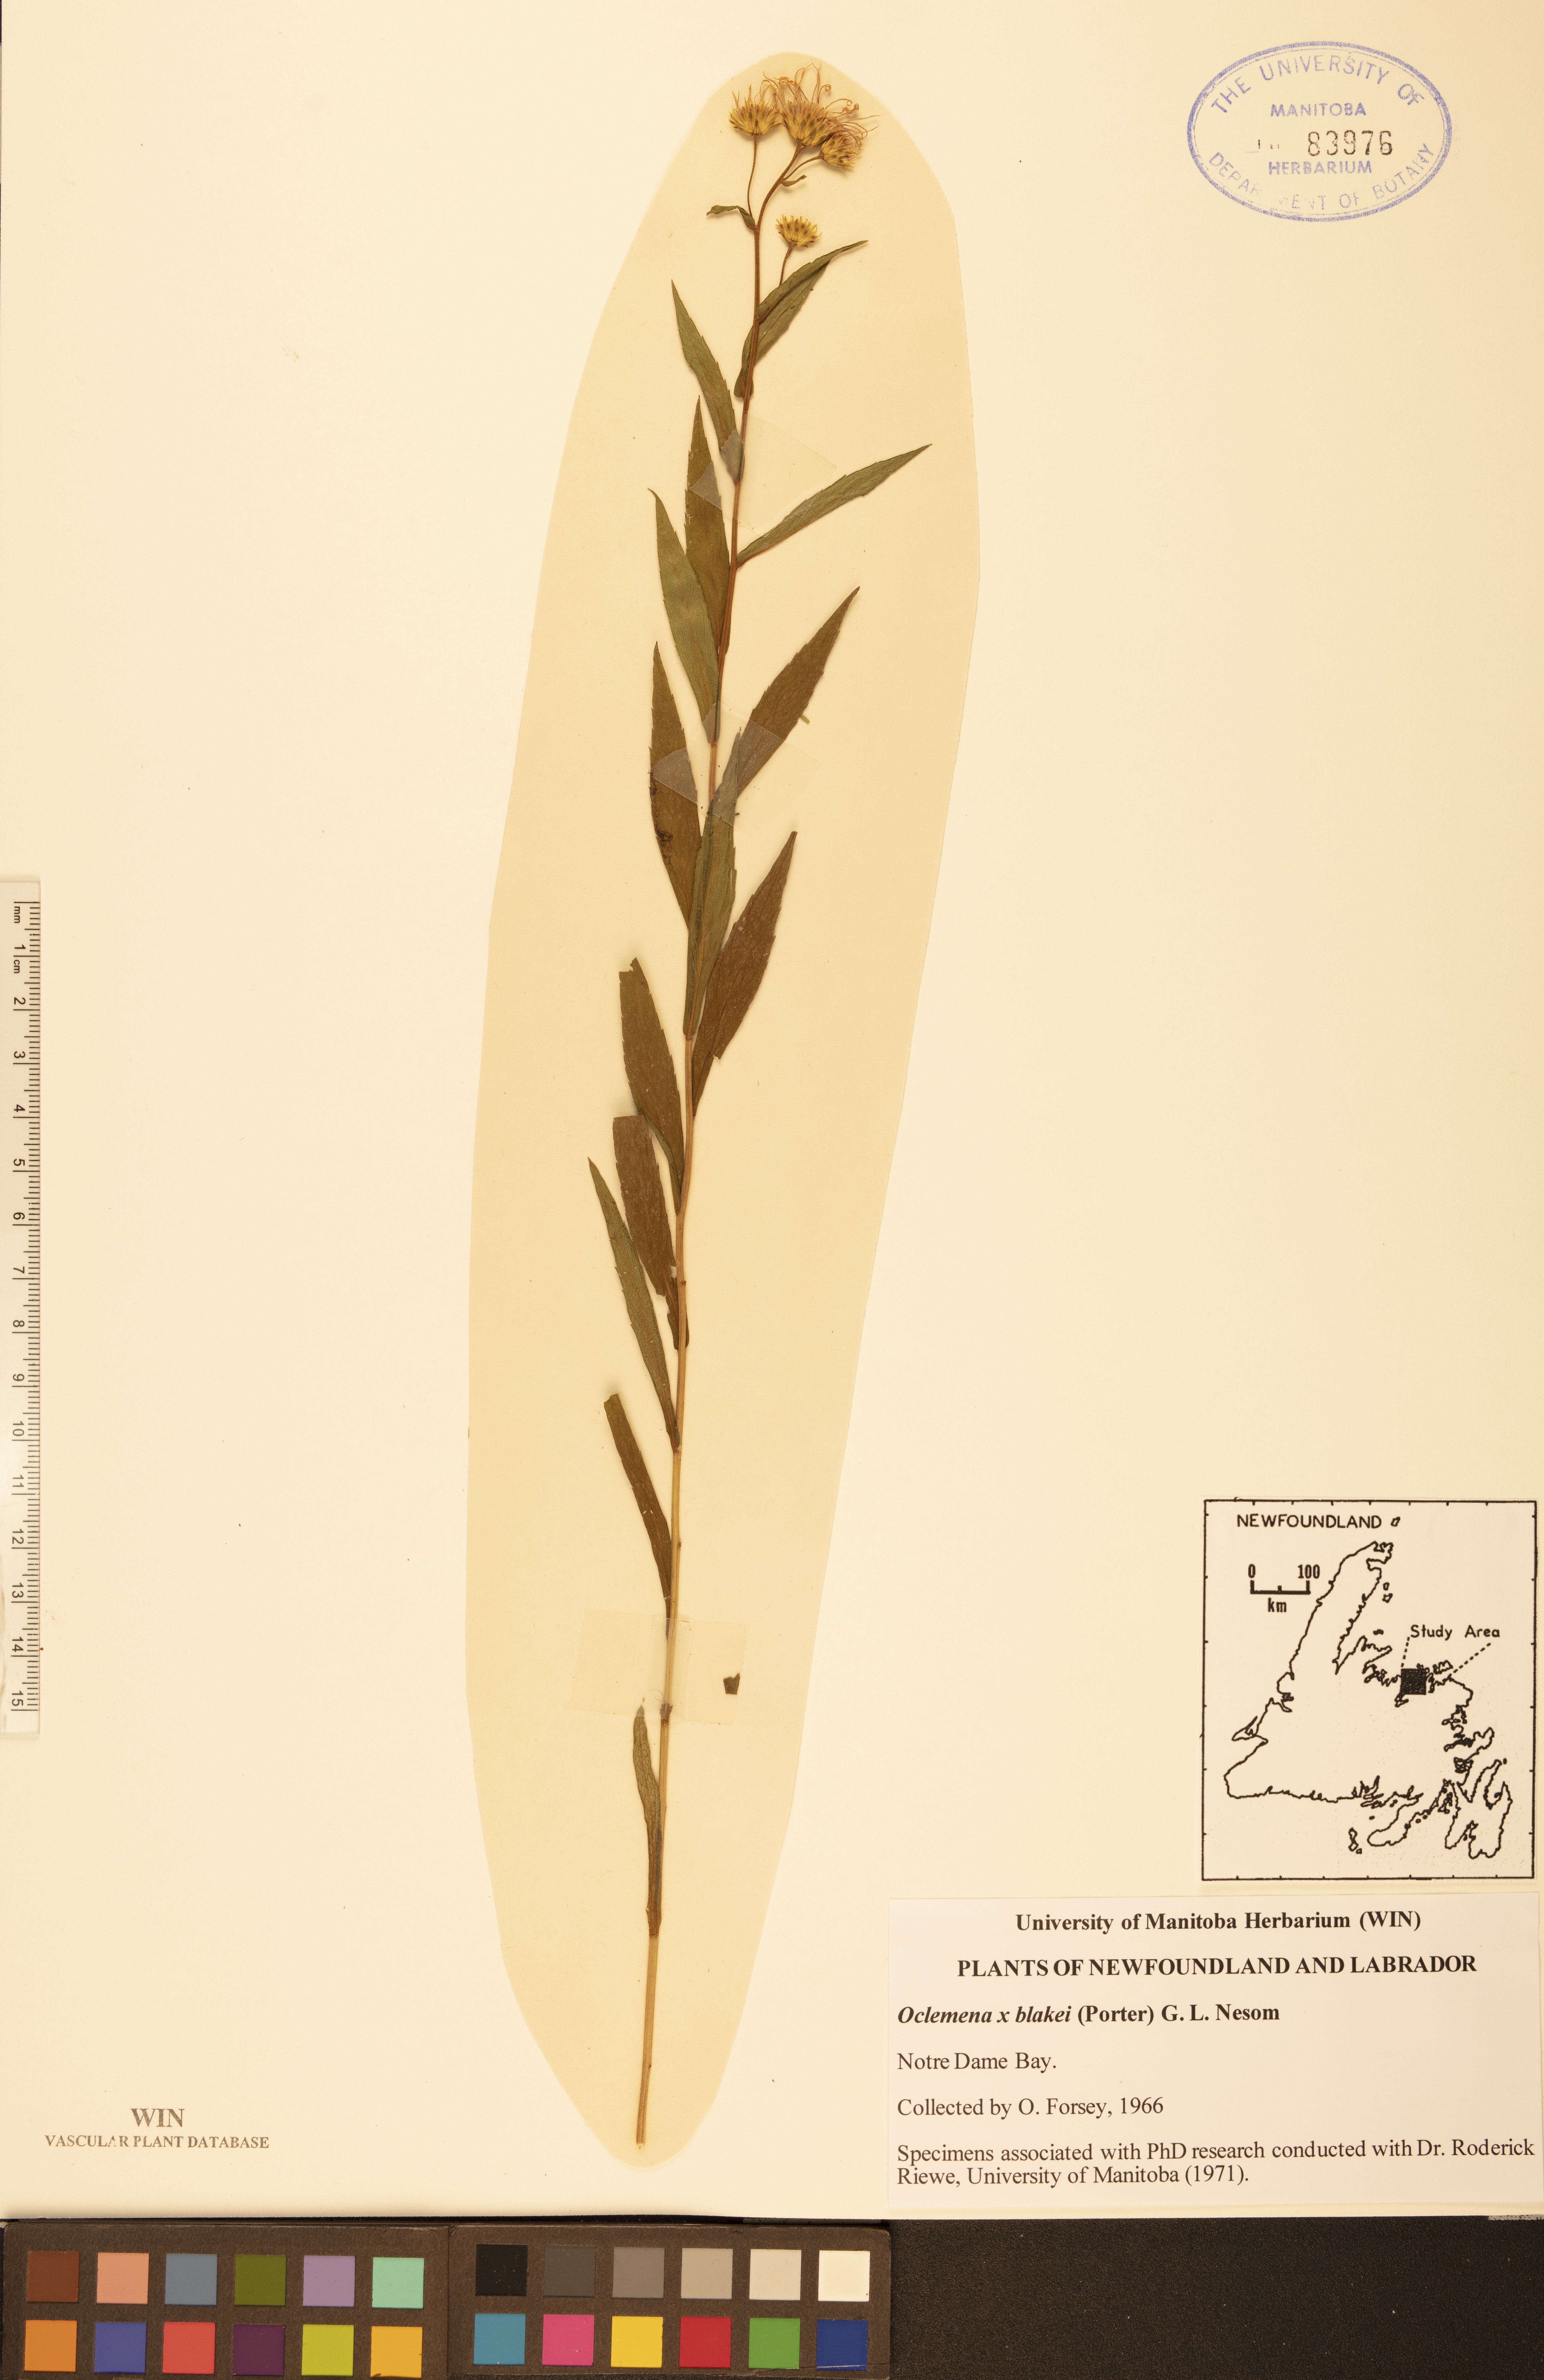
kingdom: Plantae
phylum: Tracheophyta
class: Magnoliopsida
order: Asterales
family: Asteraceae
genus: Oclemena
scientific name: Oclemena blakei
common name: Blake's aster
